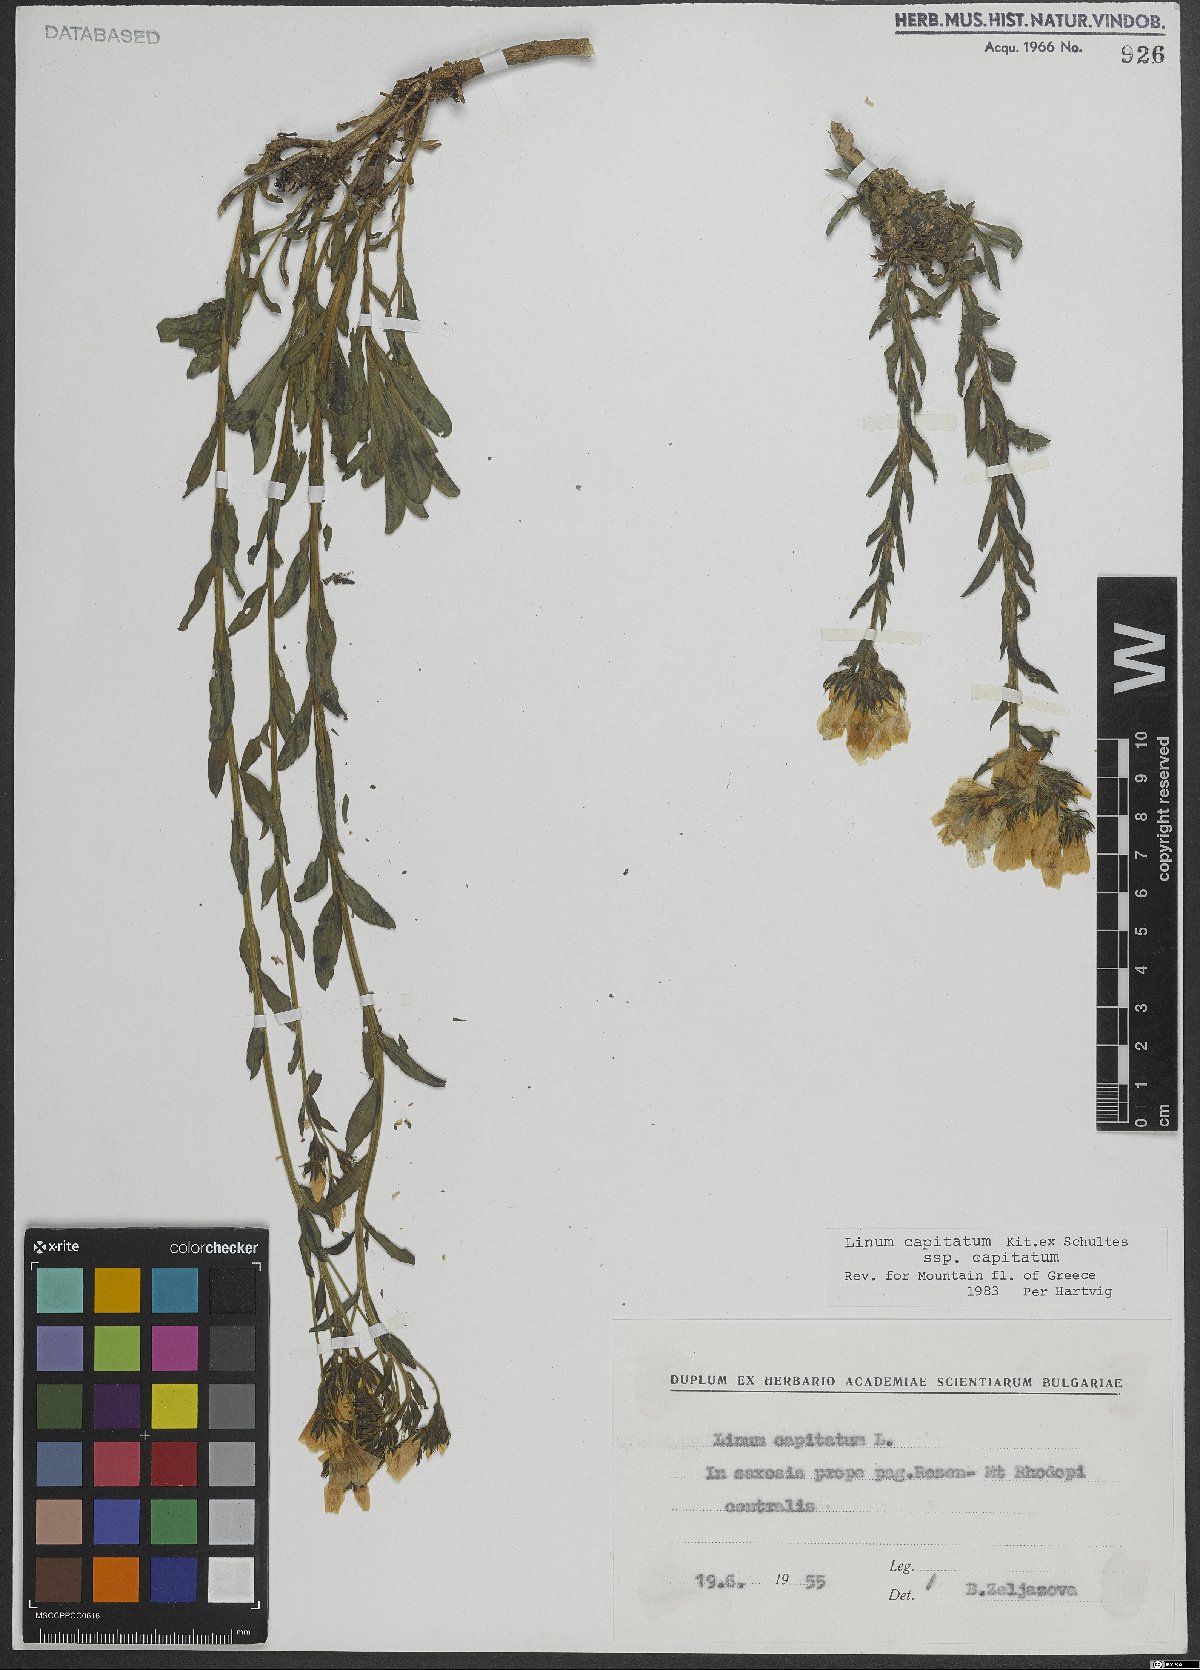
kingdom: Plantae
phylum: Tracheophyta
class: Magnoliopsida
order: Malpighiales
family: Linaceae
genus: Linum
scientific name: Linum capitatum
